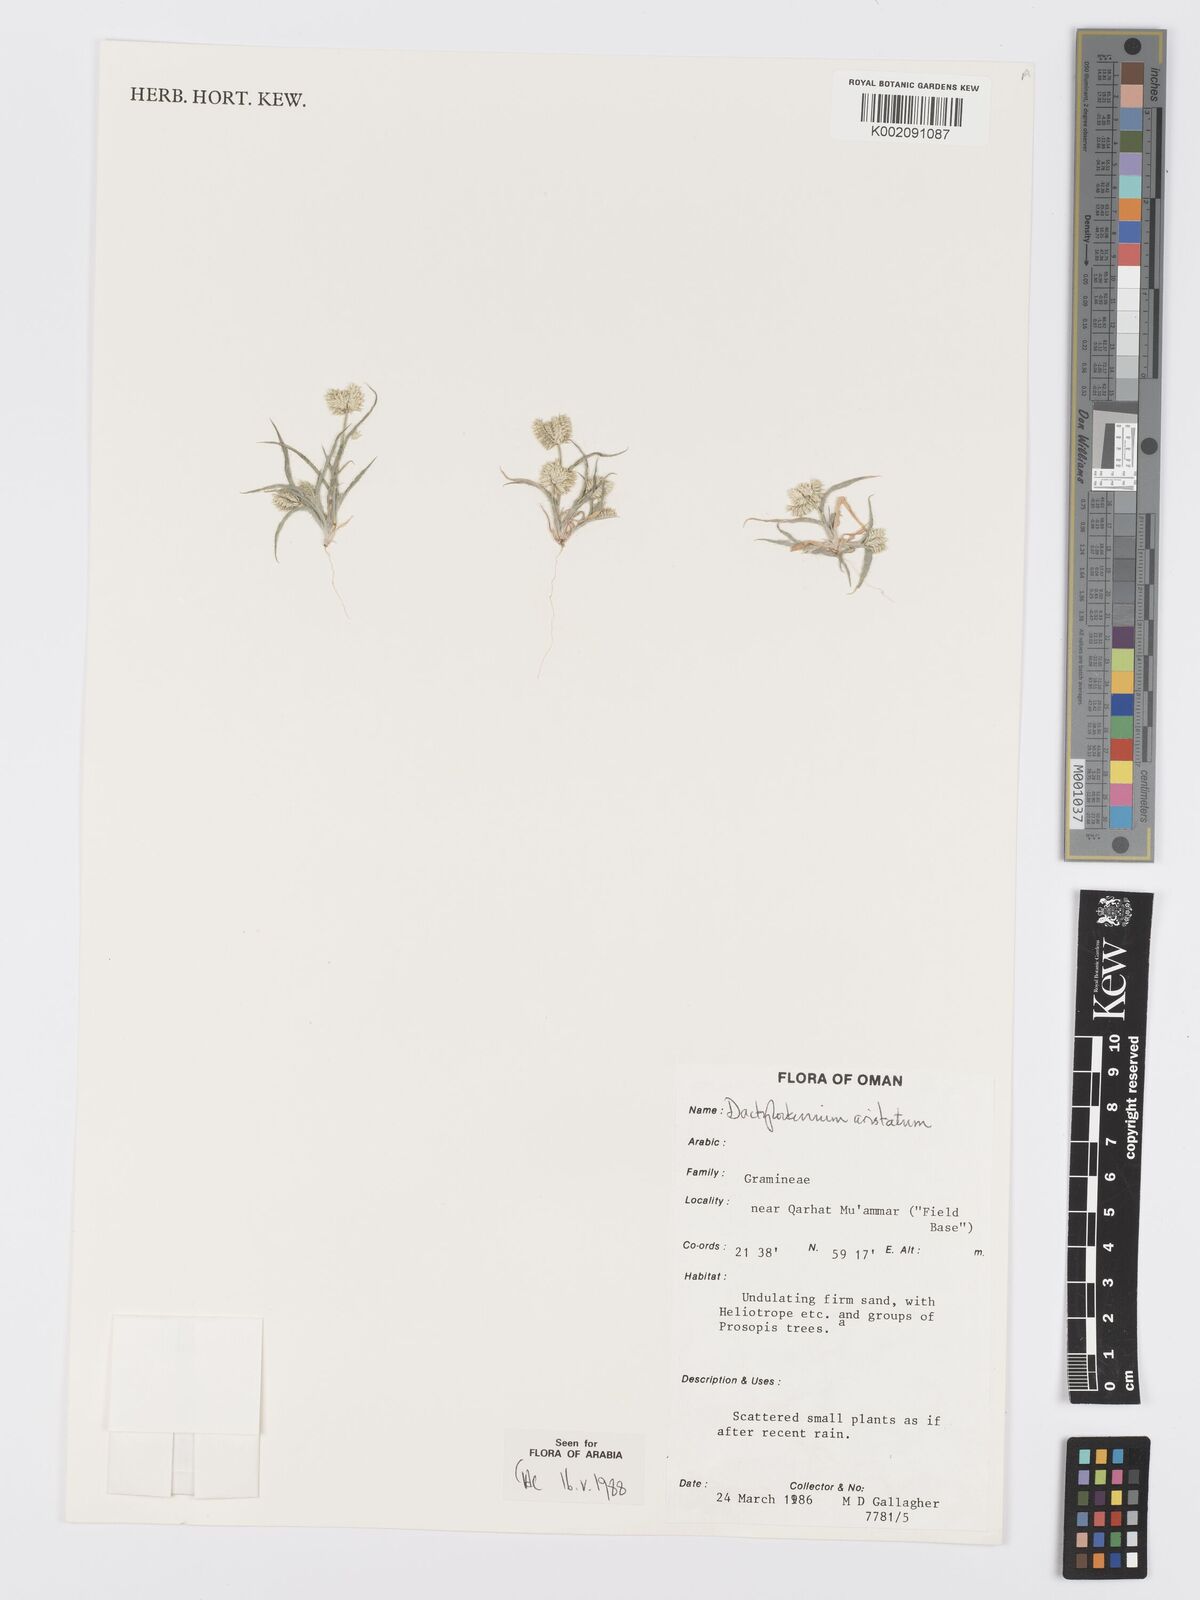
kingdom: Plantae
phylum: Tracheophyta
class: Liliopsida
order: Poales
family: Poaceae
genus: Dactyloctenium
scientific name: Dactyloctenium aristatum
